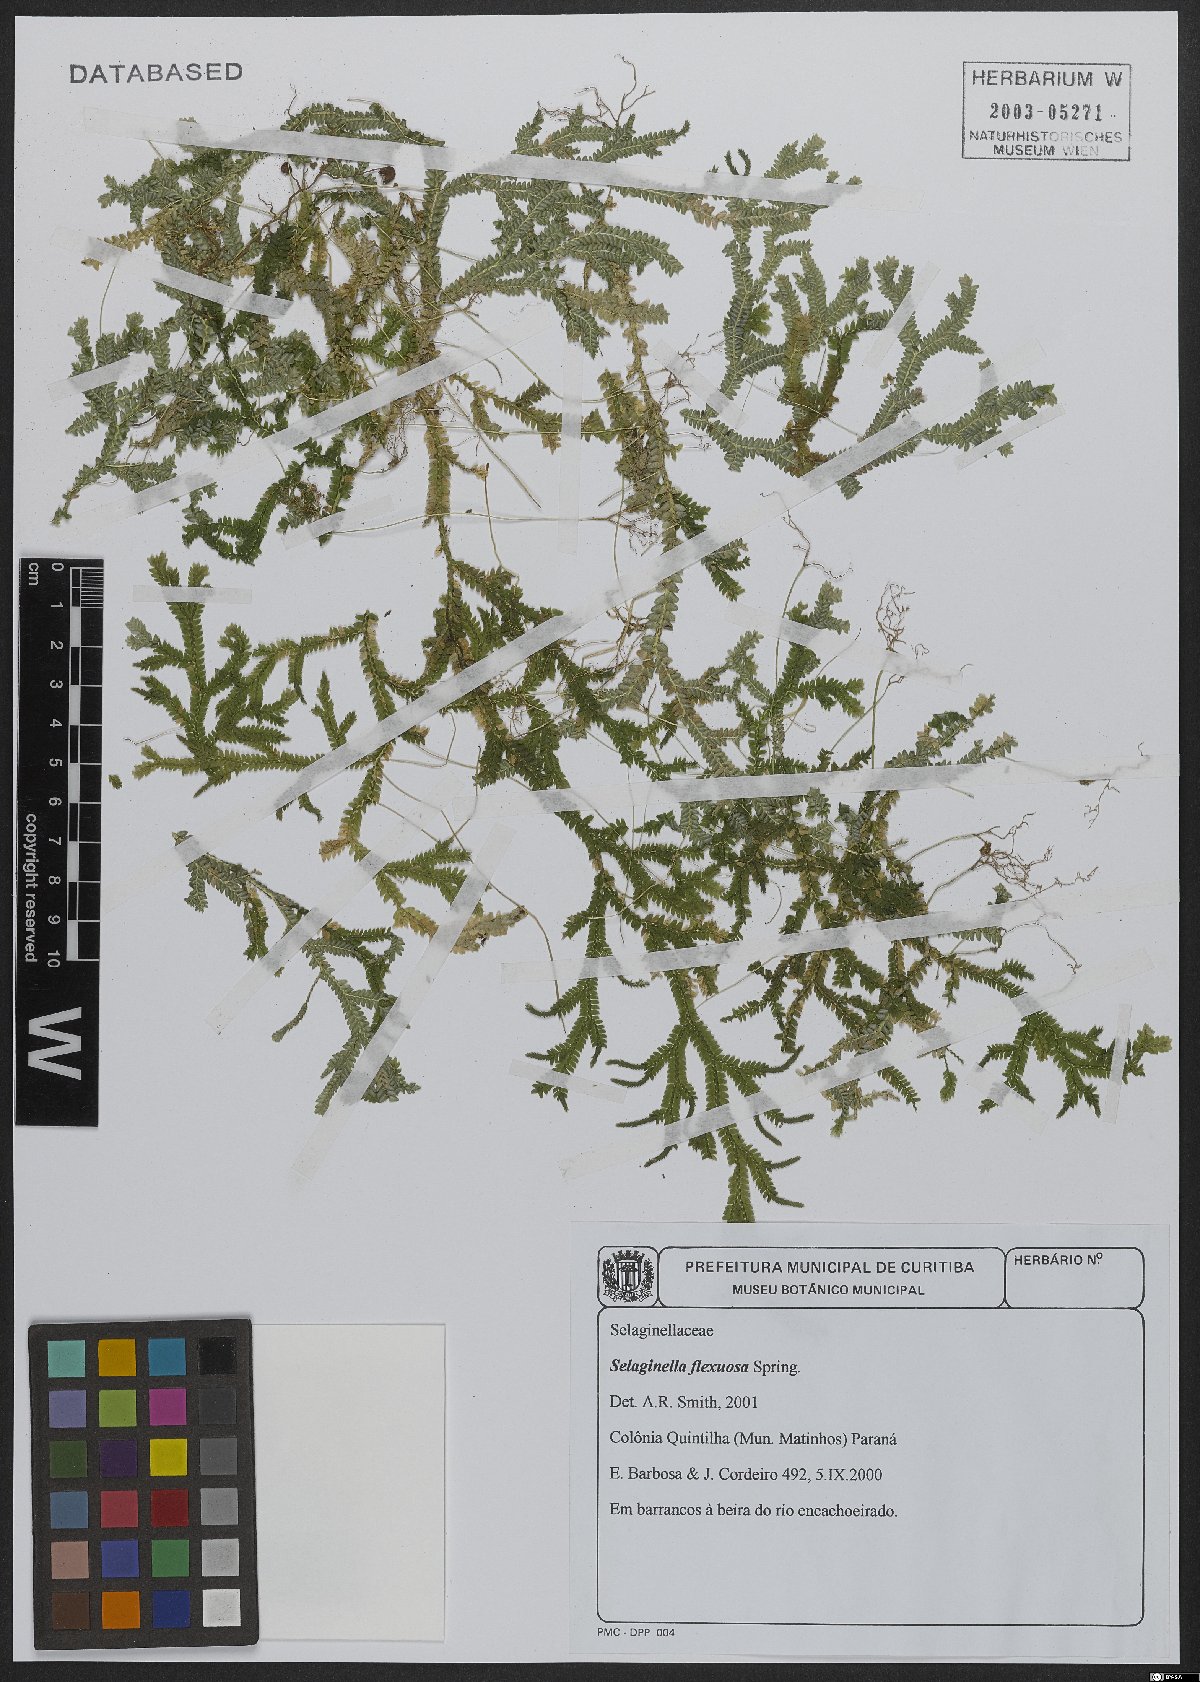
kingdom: Plantae
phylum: Tracheophyta
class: Lycopodiopsida
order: Selaginellales
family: Selaginellaceae
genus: Selaginella
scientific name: Selaginella flexuosa
